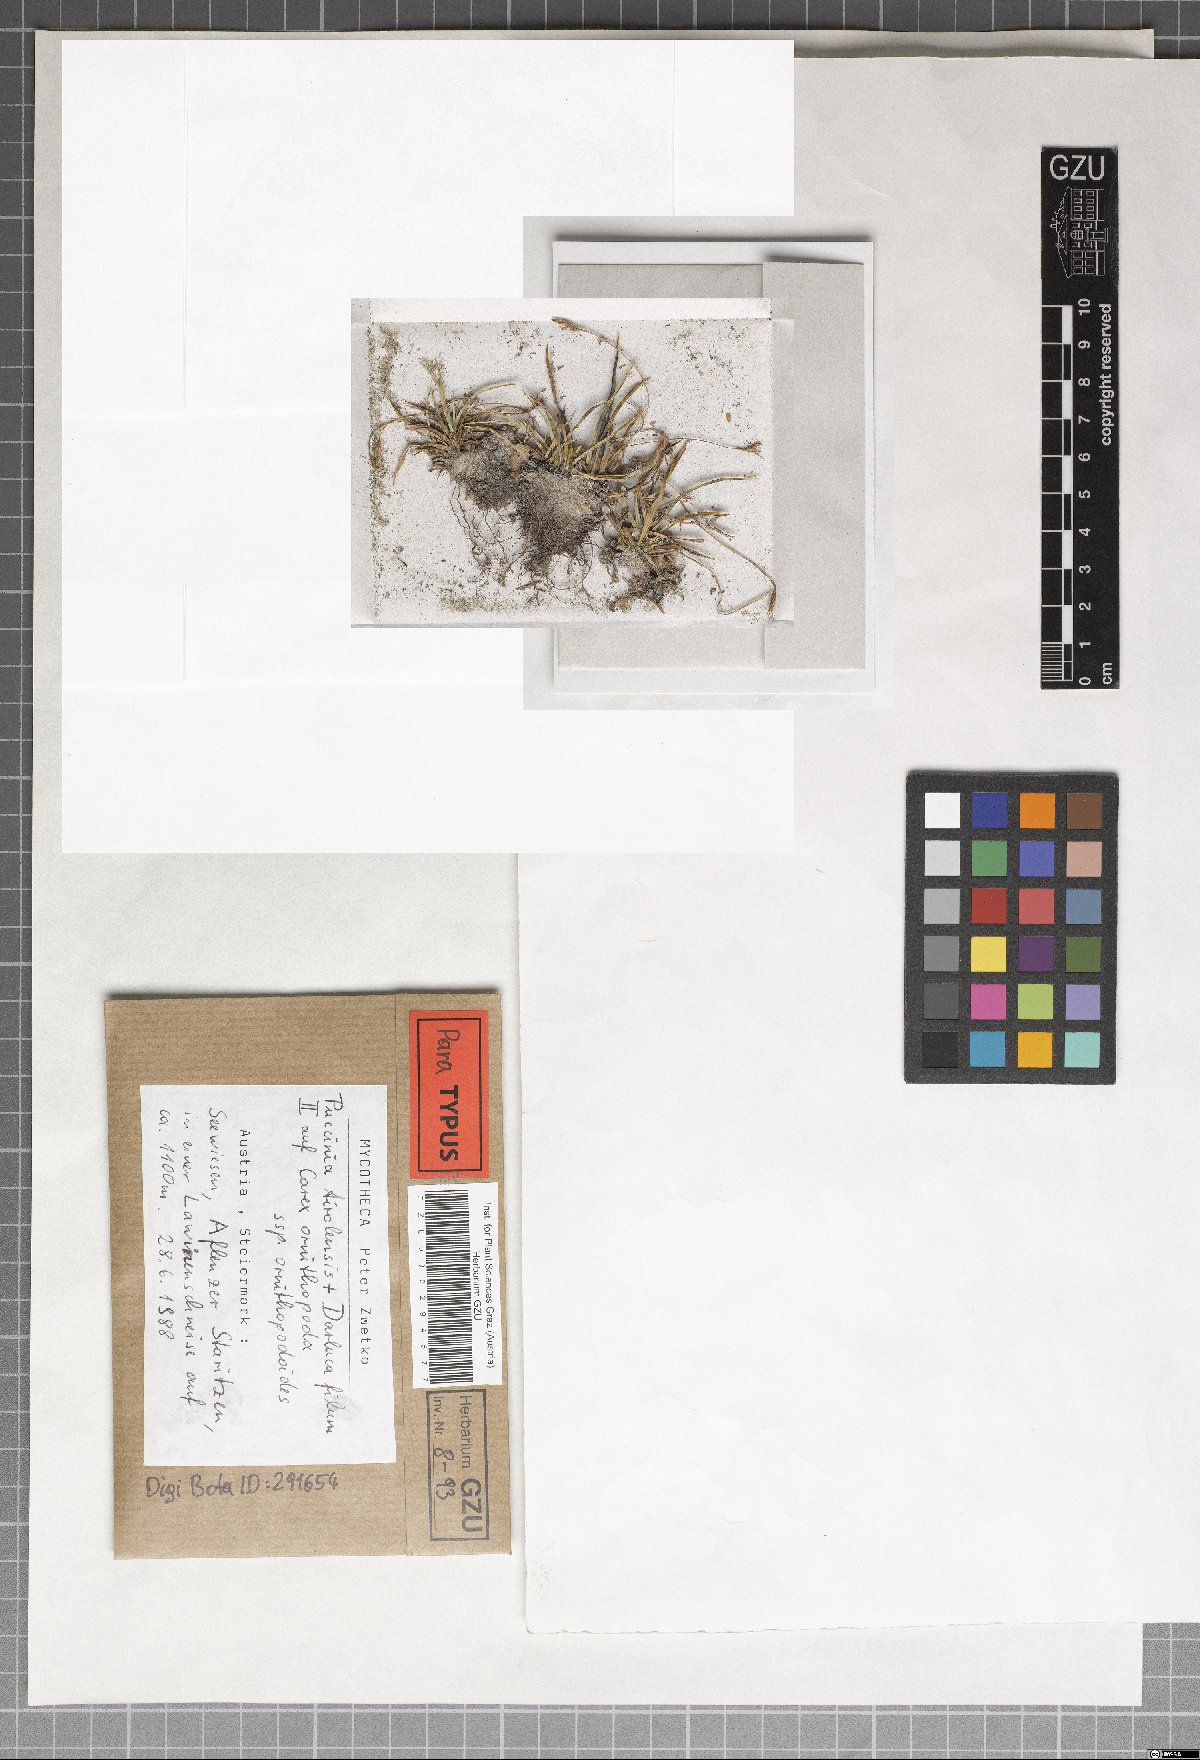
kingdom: Fungi
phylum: Basidiomycota
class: Pucciniomycetes
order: Pucciniales
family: Pucciniaceae
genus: Puccinia
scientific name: Puccinia tirolensis
